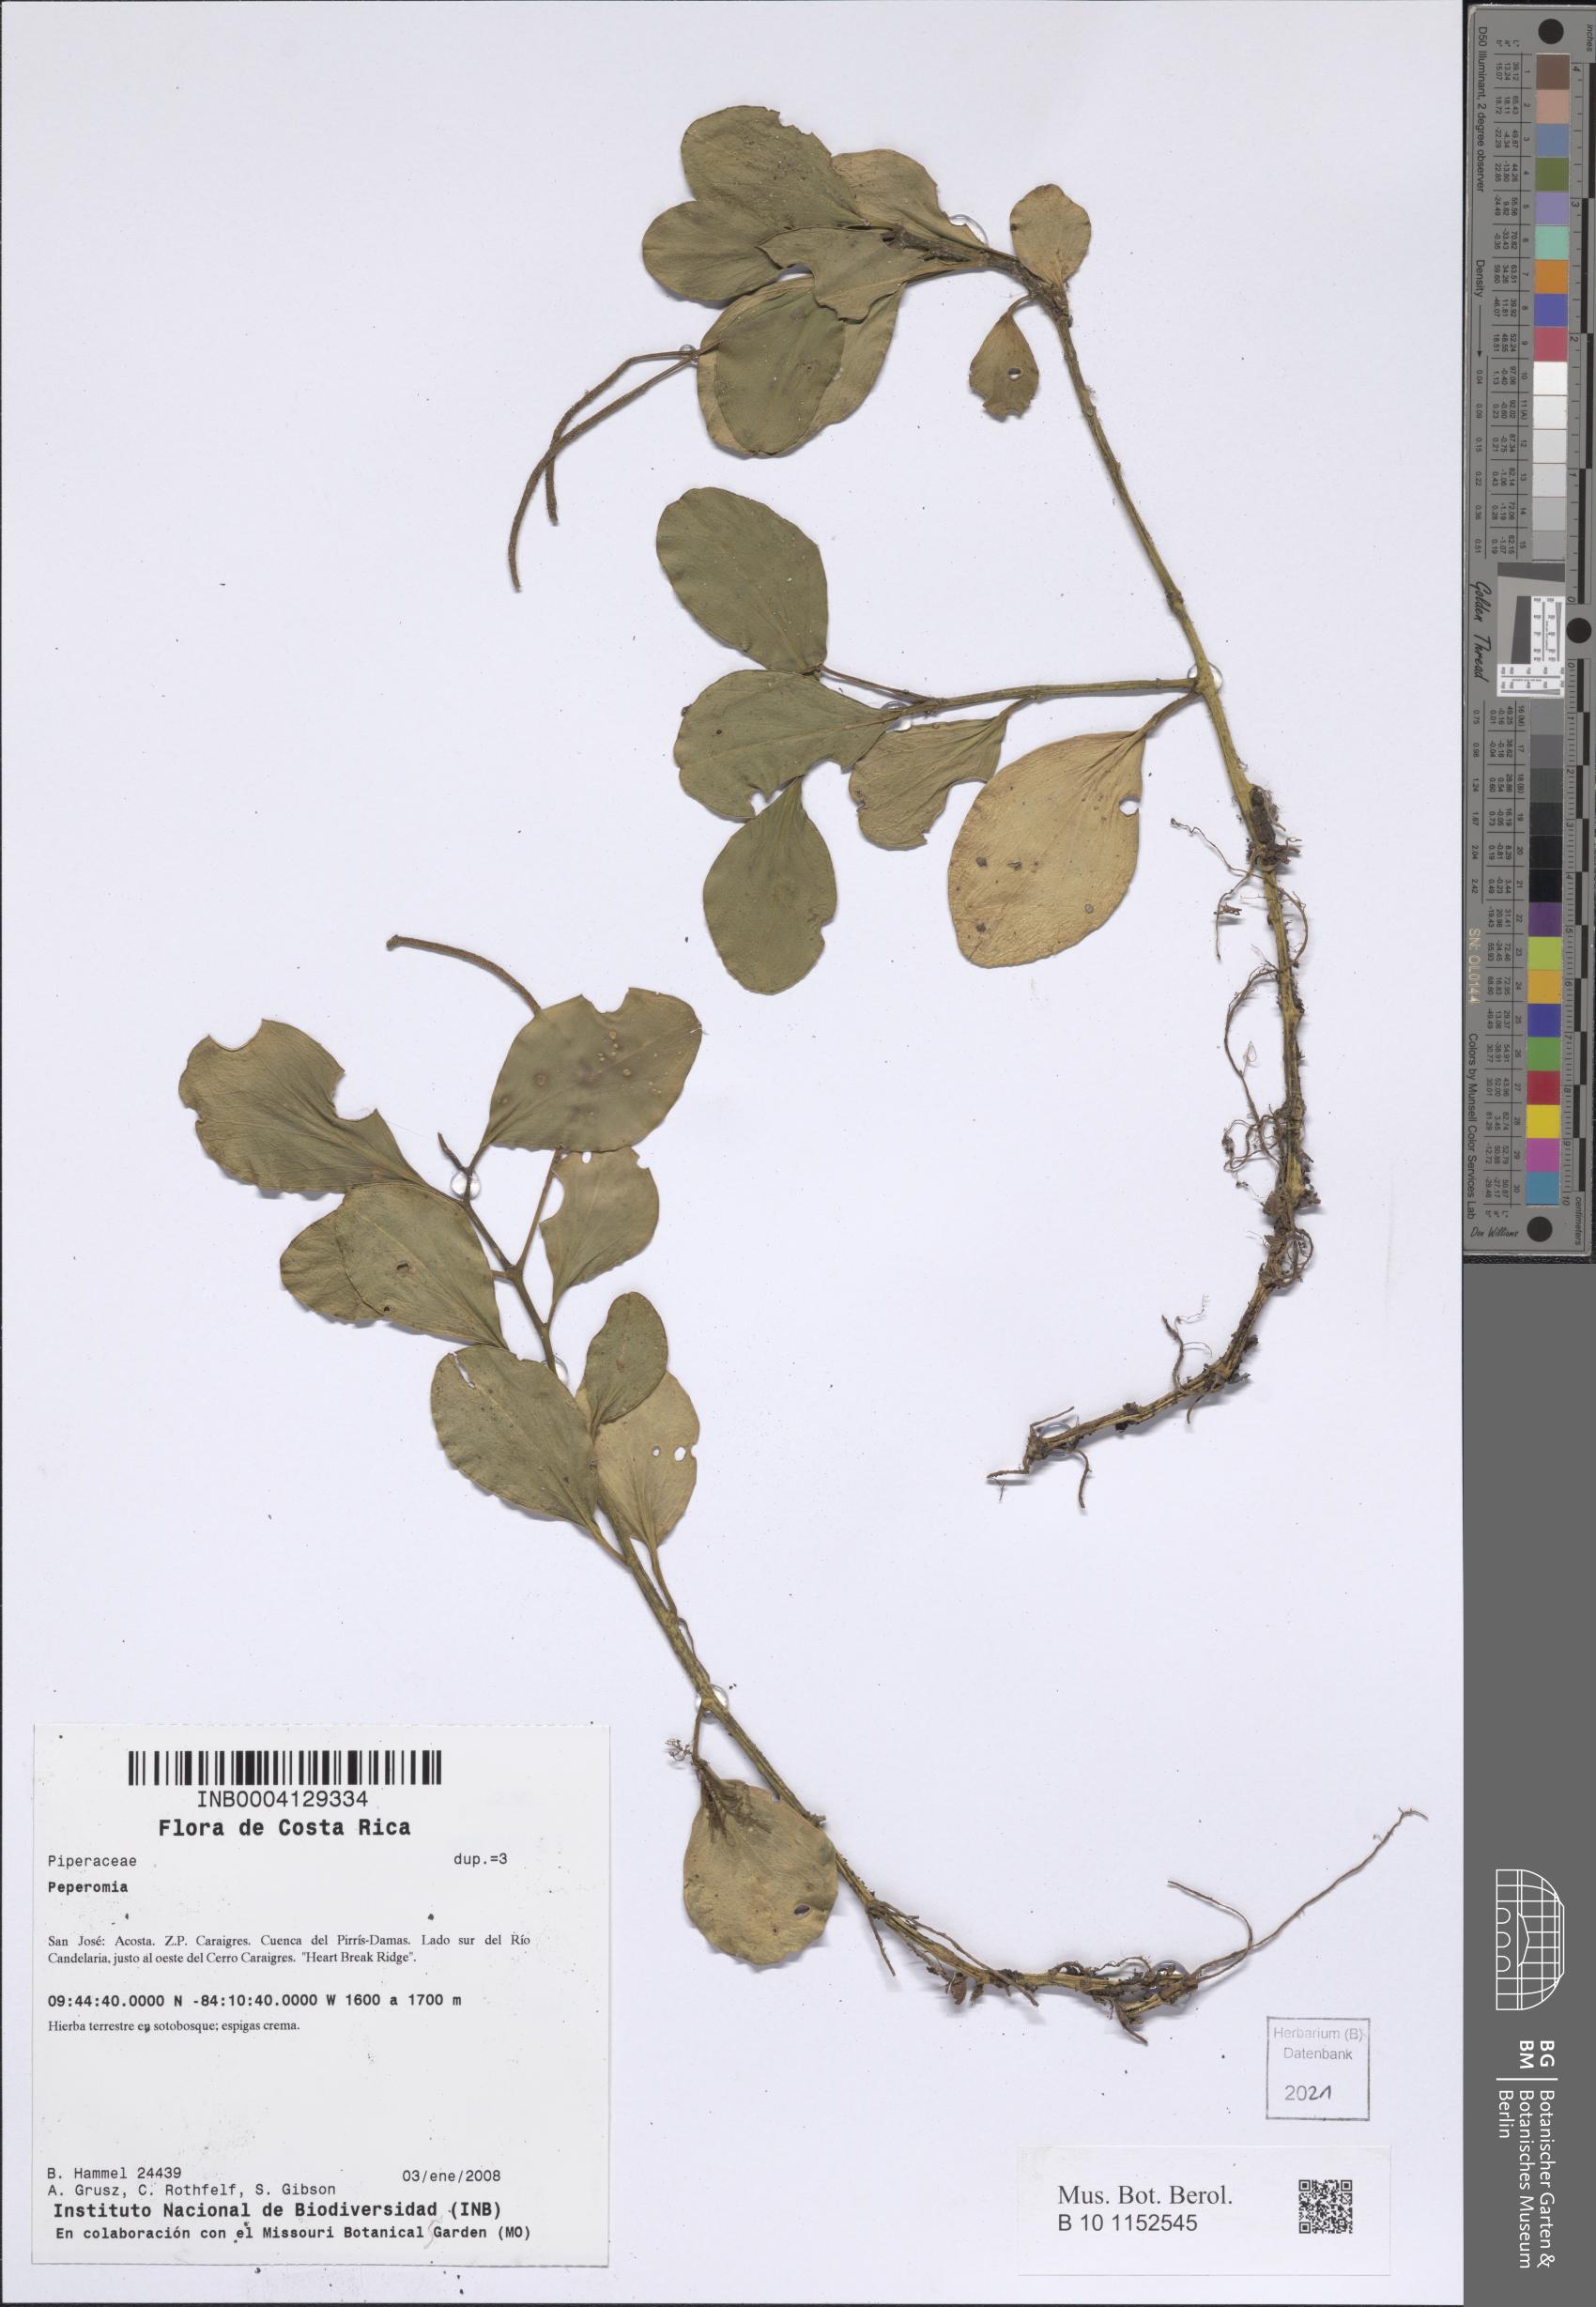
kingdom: Plantae
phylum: Tracheophyta
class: Magnoliopsida
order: Piperales
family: Piperaceae
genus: Peperomia
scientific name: Peperomia
